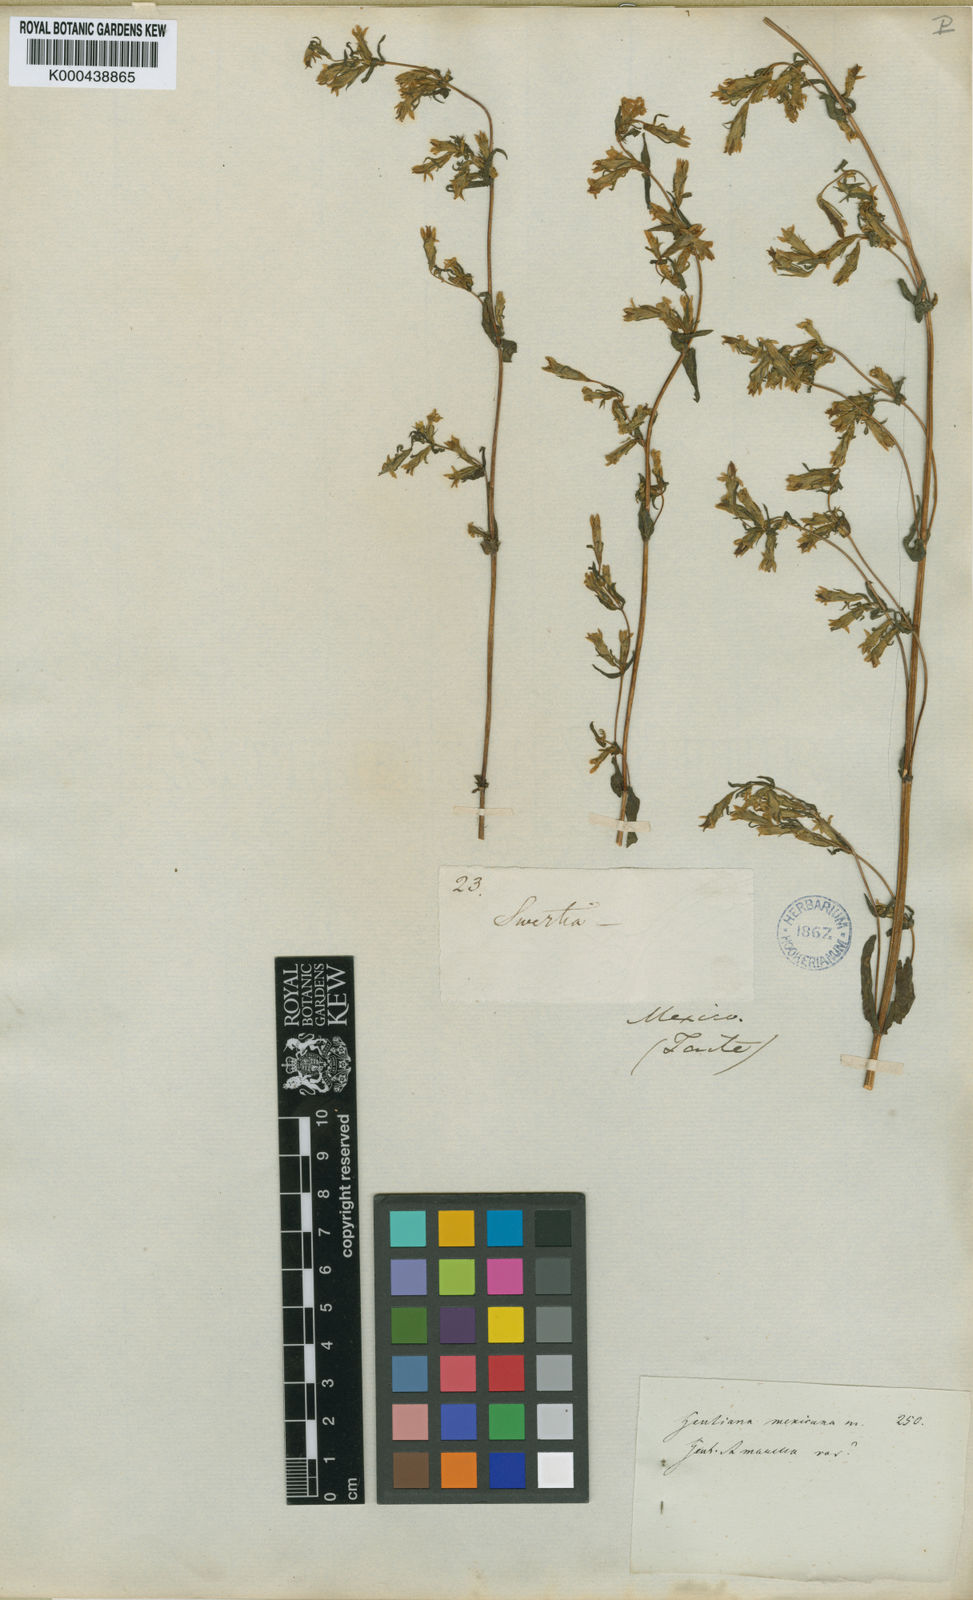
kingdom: Plantae
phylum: Tracheophyta
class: Magnoliopsida
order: Gentianales
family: Gentianaceae
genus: Gentianella
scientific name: Gentianella amarella
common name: Autumn gentian
